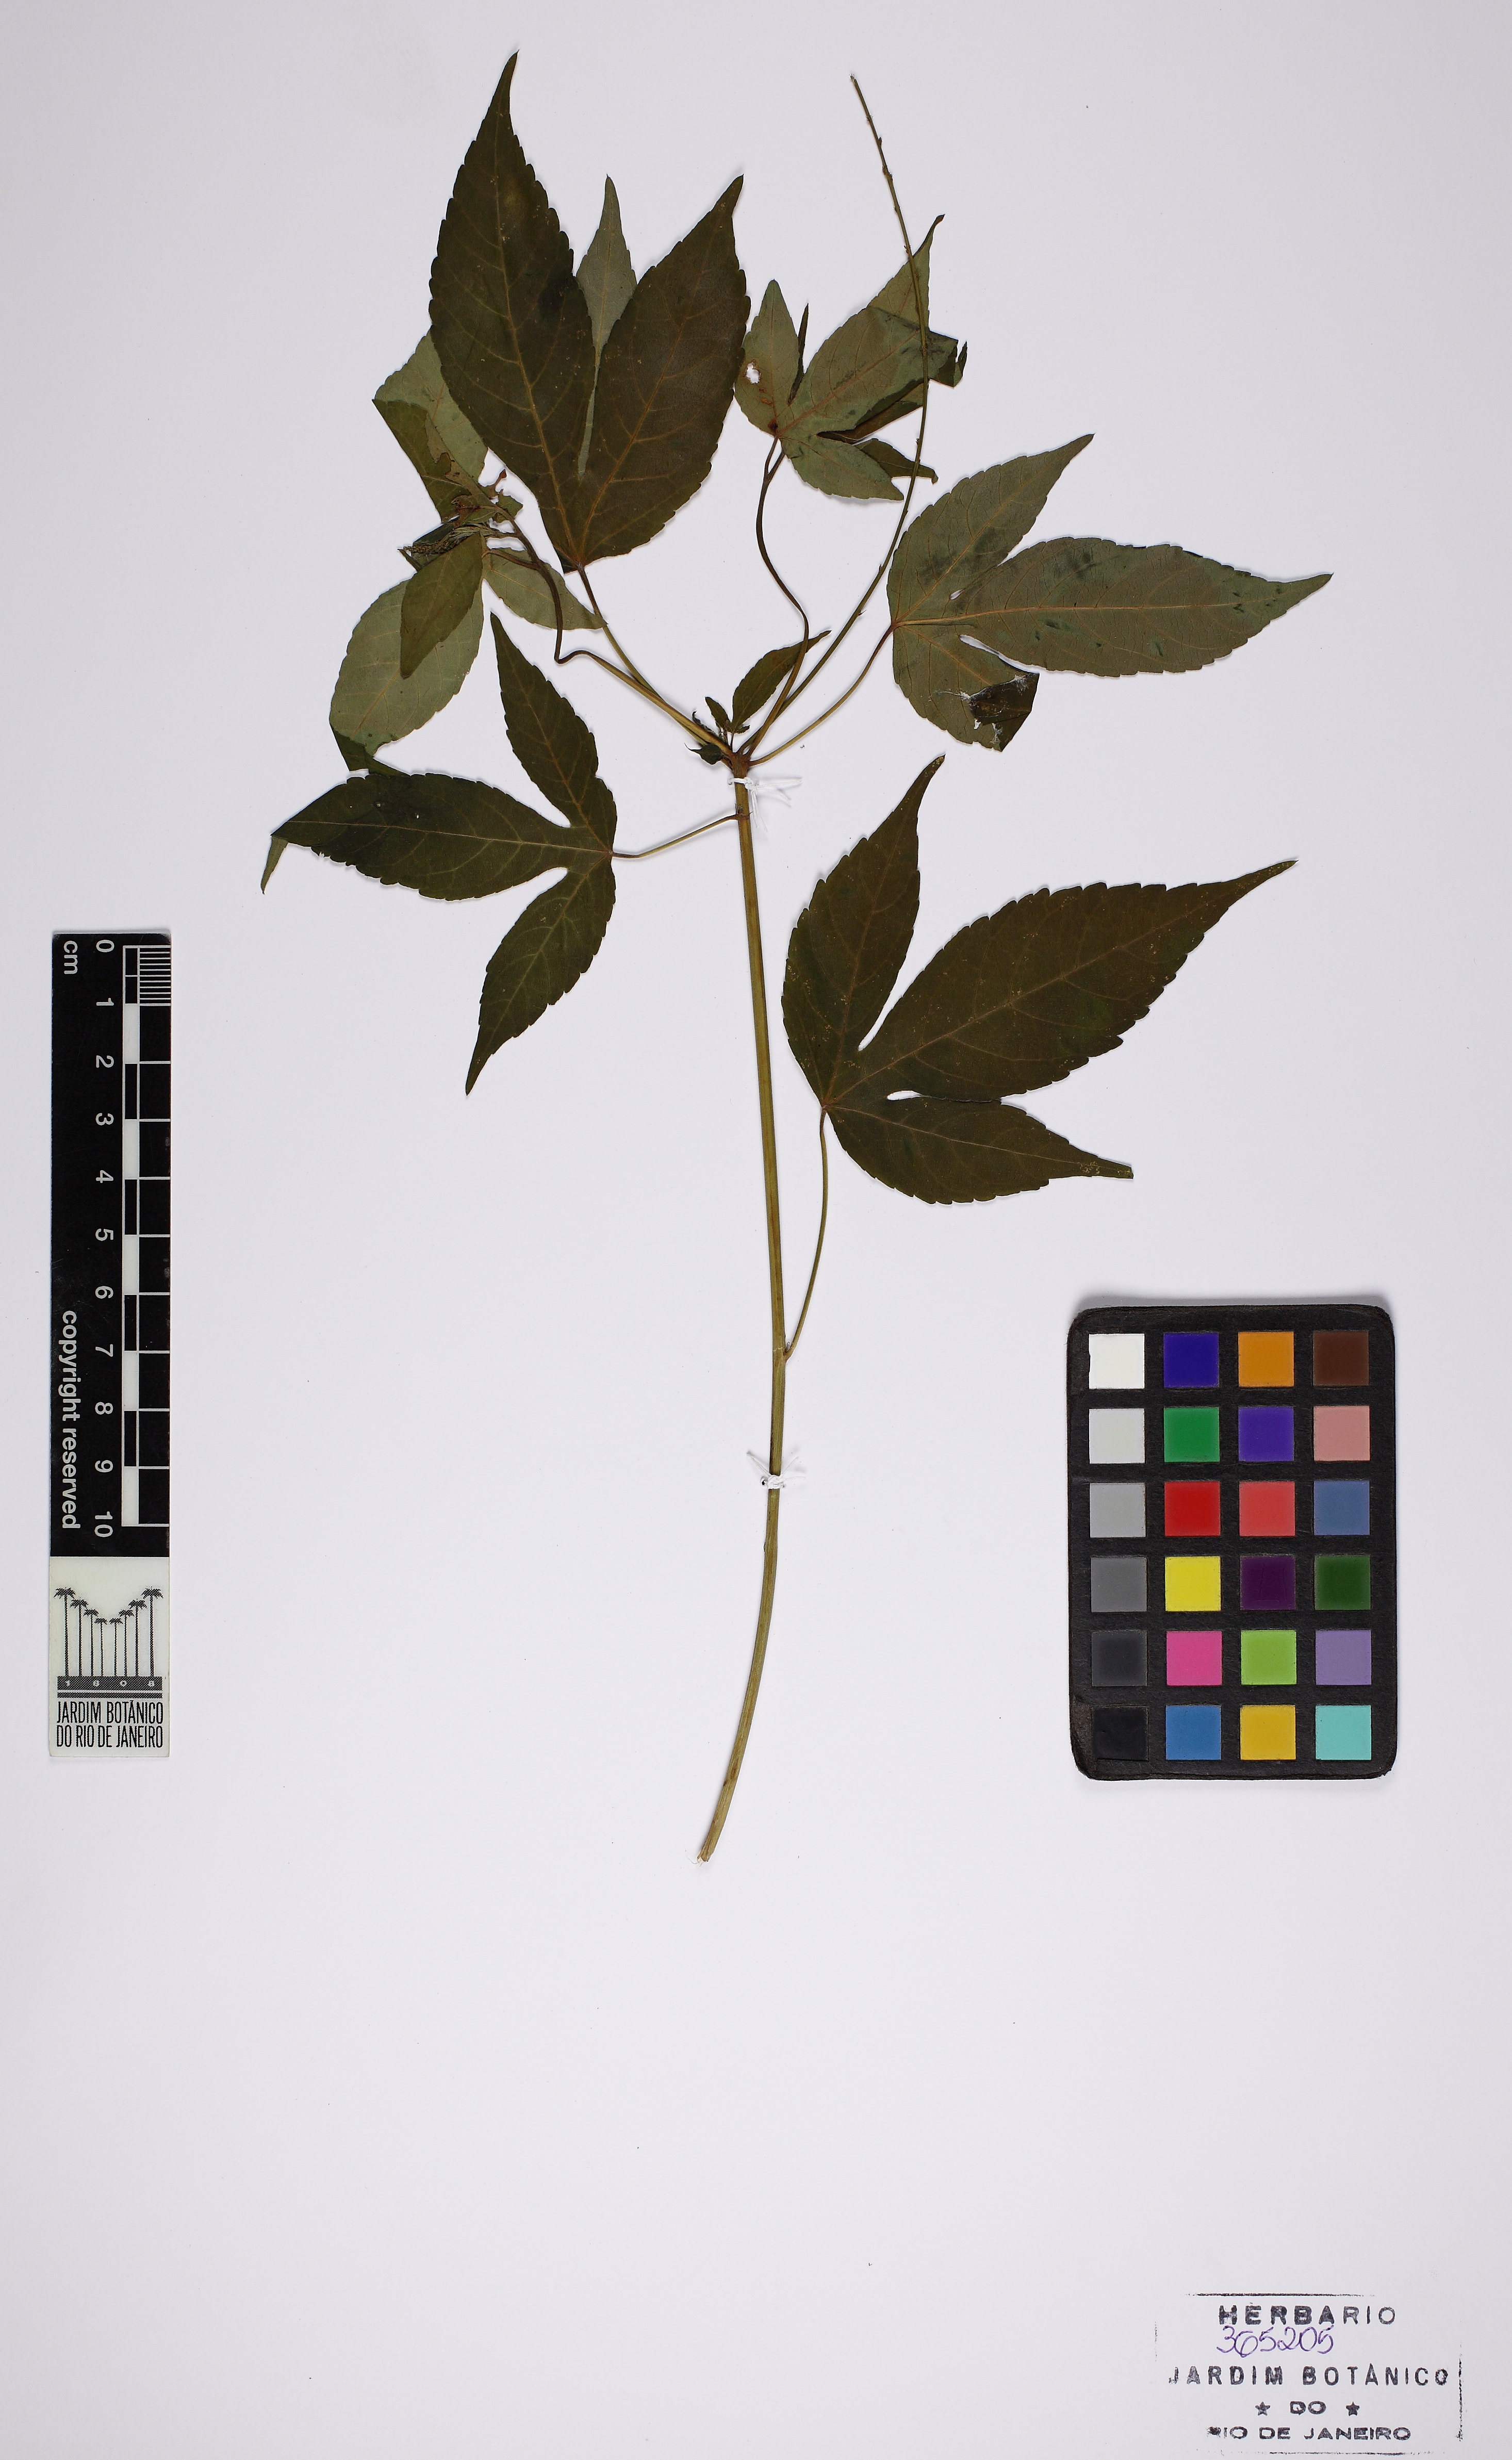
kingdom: Plantae
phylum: Tracheophyta
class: Magnoliopsida
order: Malpighiales
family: Euphorbiaceae
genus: Astraea
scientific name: Astraea paulina
